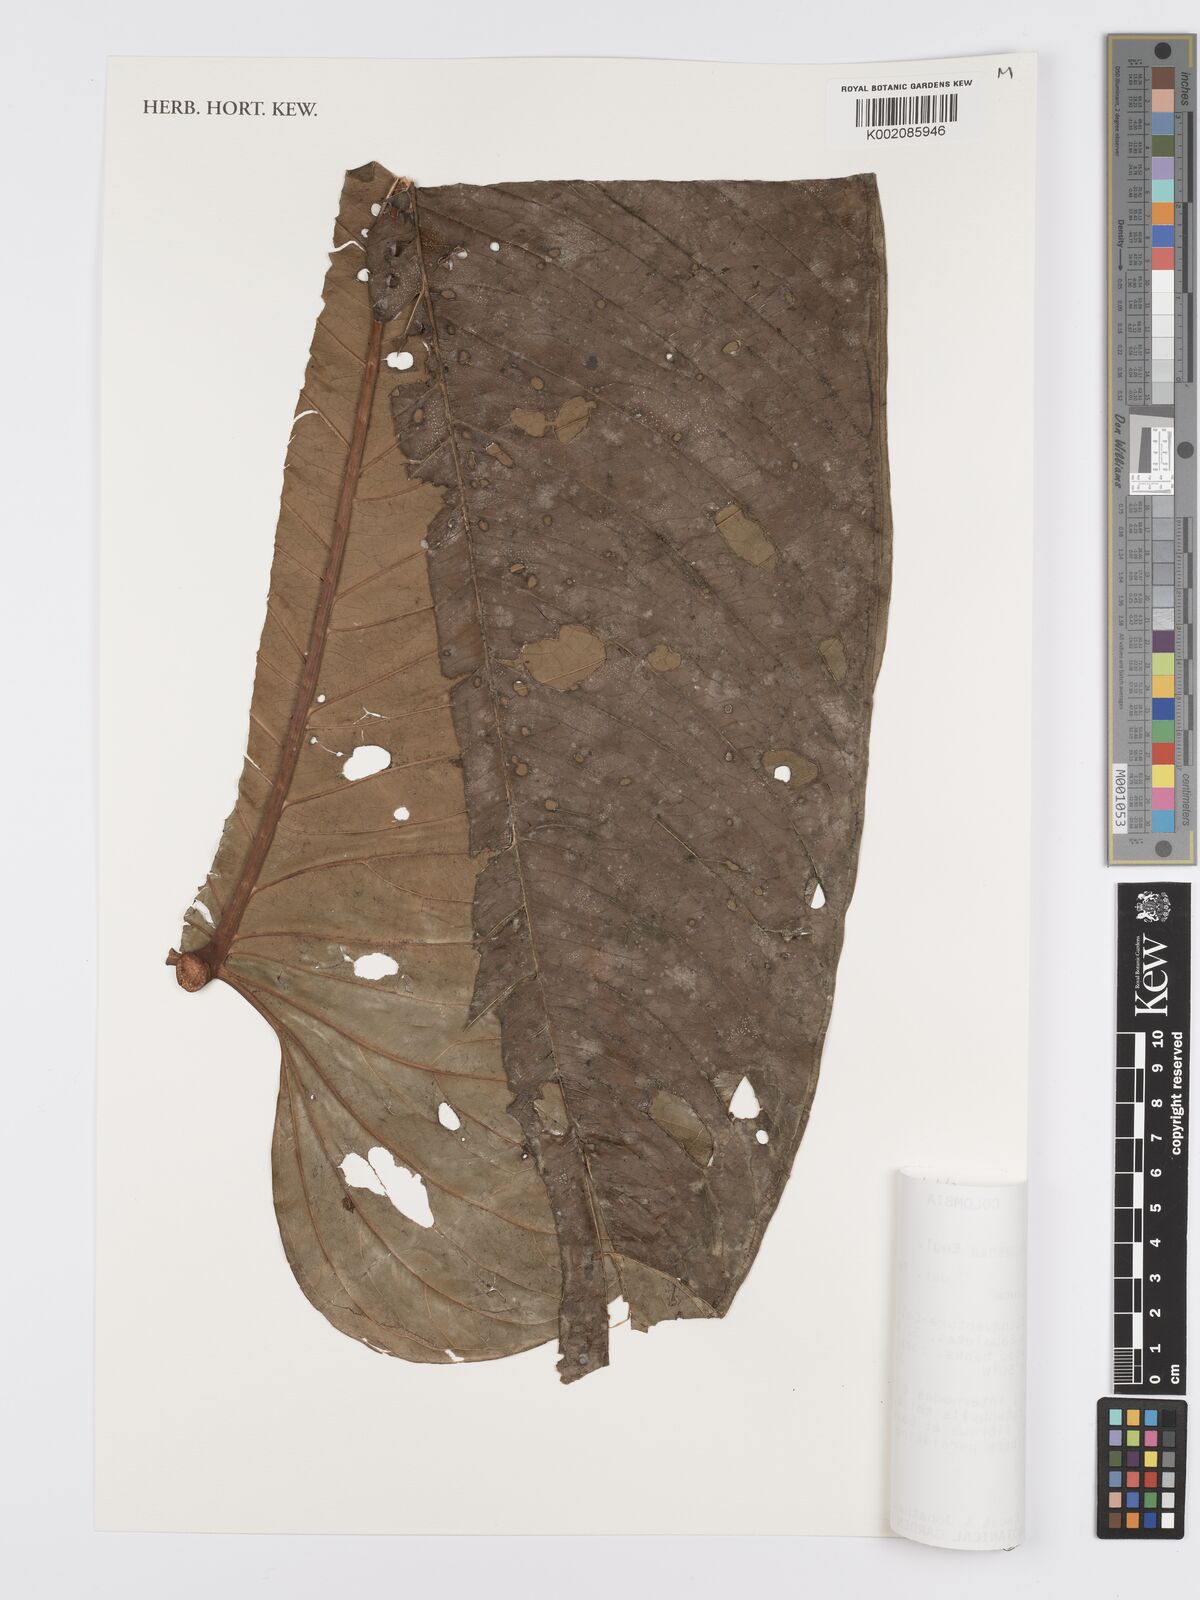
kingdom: Plantae
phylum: Tracheophyta
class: Liliopsida
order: Alismatales
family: Araceae
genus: Anthurium
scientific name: Anthurium daguense
